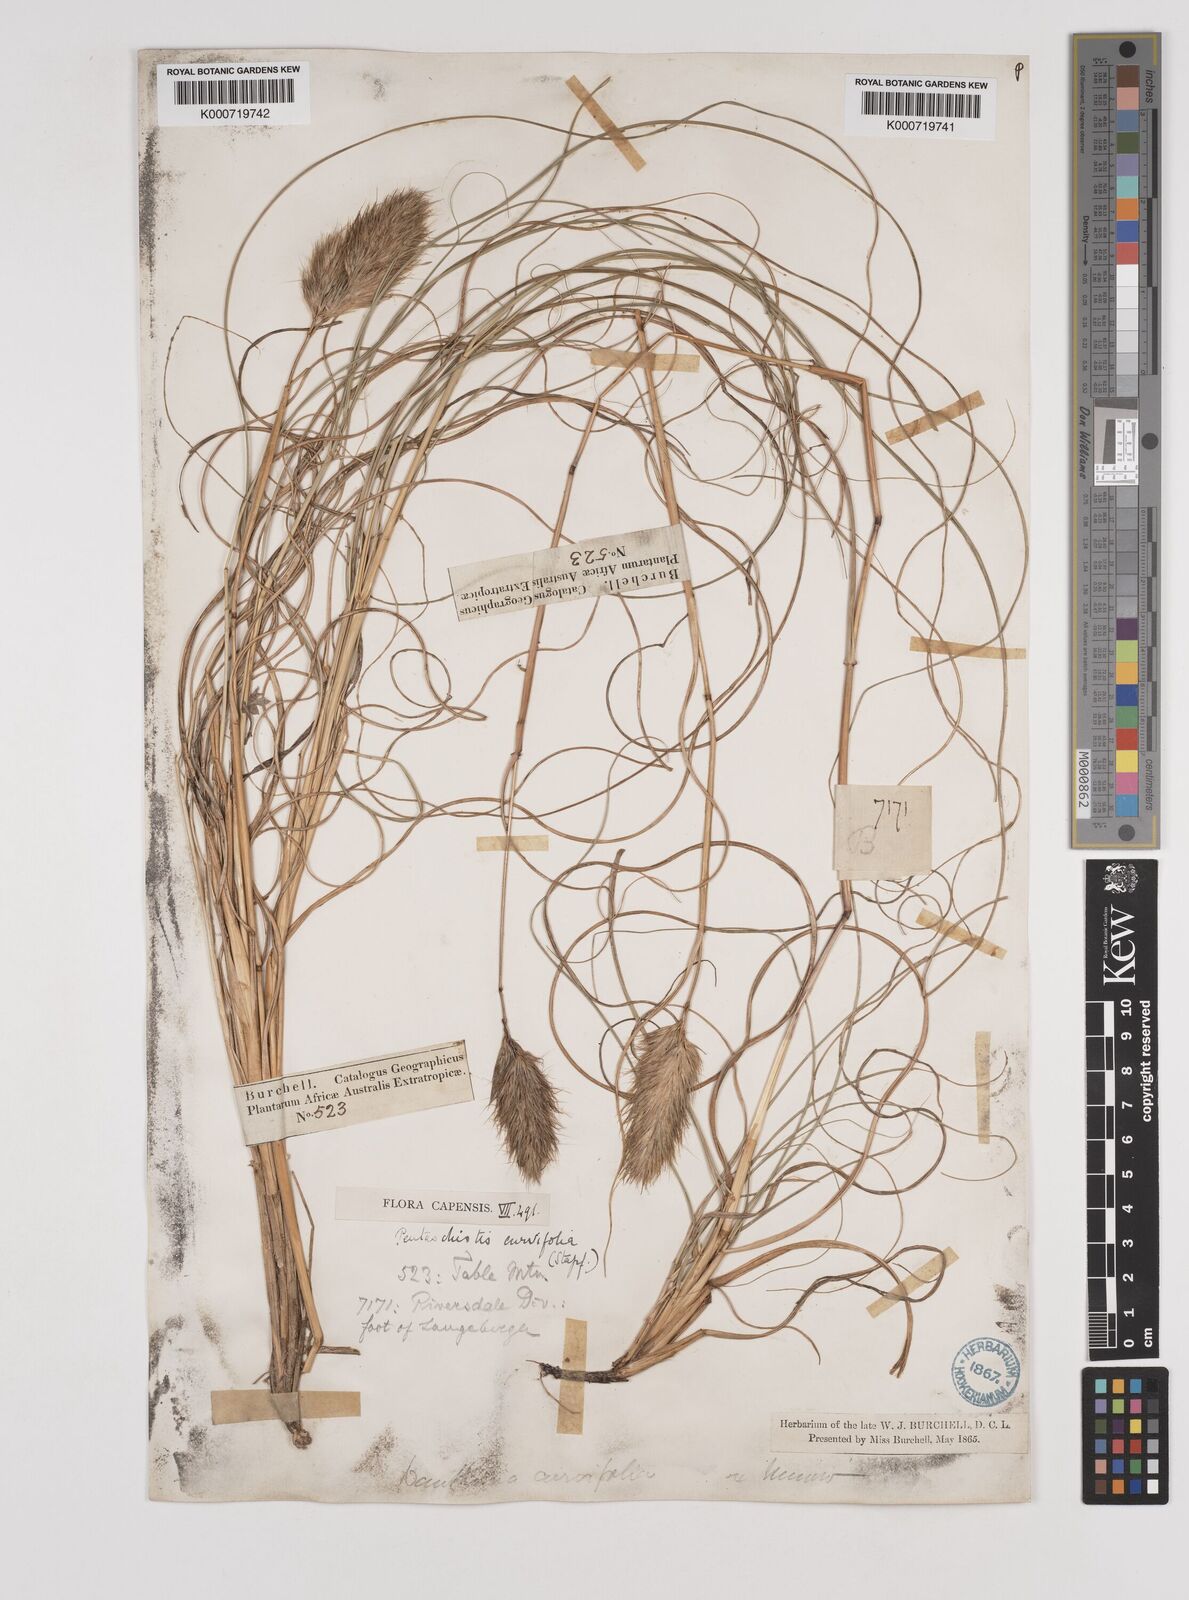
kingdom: Plantae
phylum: Tracheophyta
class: Liliopsida
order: Poales
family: Poaceae
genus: Pentameris
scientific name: Pentameris curvifolia
